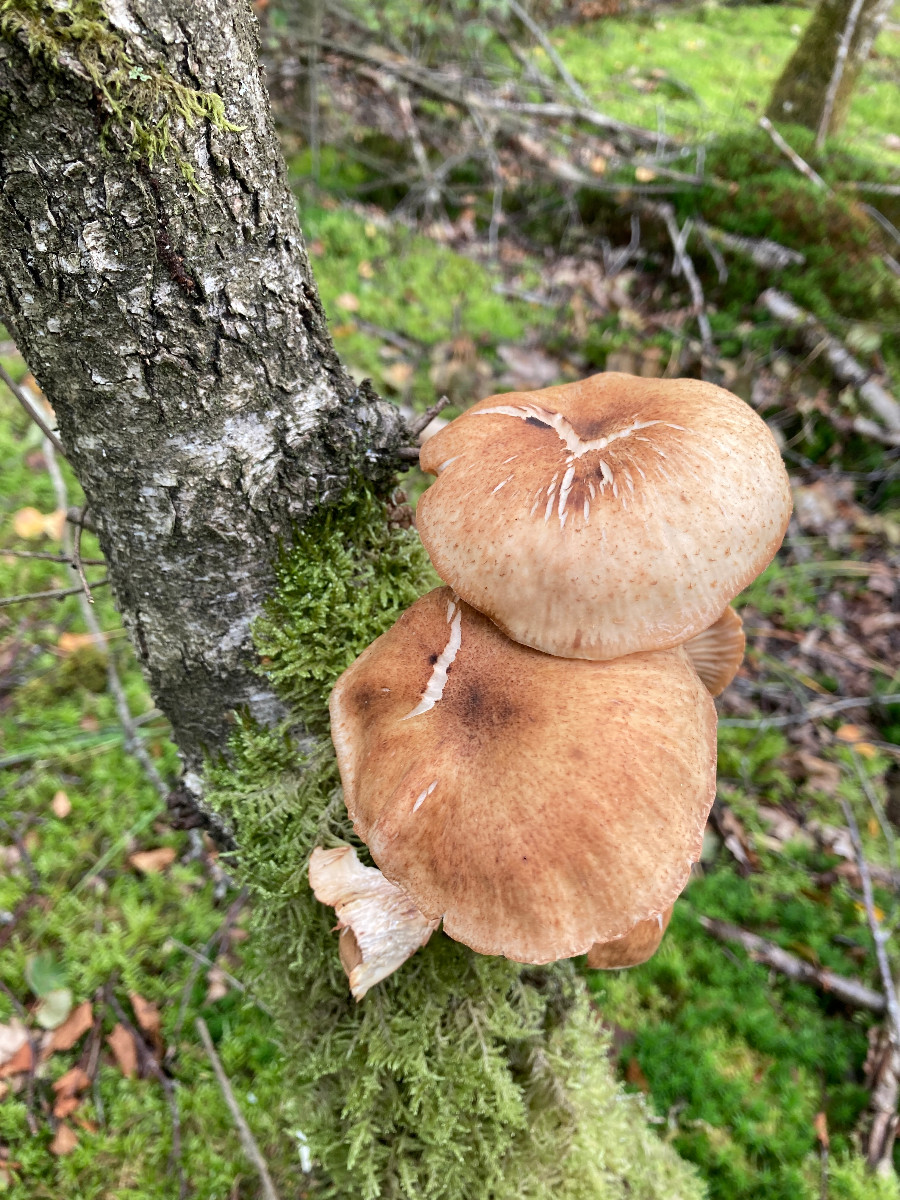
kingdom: Fungi
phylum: Basidiomycota
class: Agaricomycetes
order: Agaricales
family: Physalacriaceae
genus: Armillaria
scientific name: Armillaria ostoyae
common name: mørk honningsvamp
